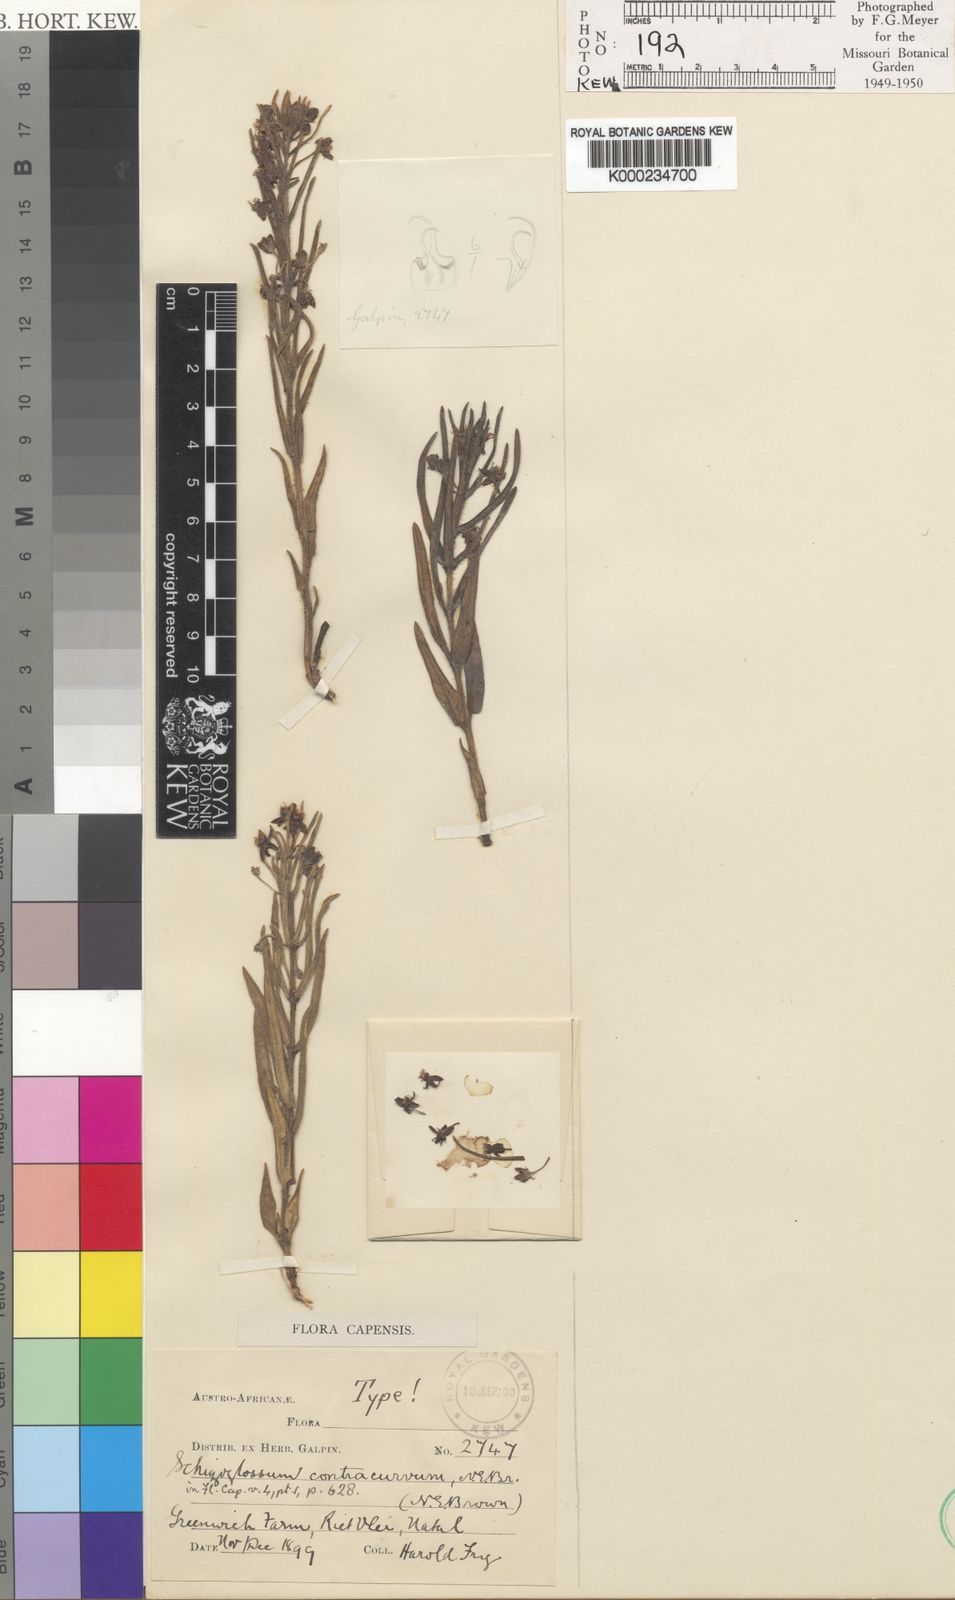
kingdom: Plantae
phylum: Tracheophyta
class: Magnoliopsida
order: Gentianales
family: Apocynaceae
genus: Aspidoglossum
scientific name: Aspidoglossum ovalifolium
